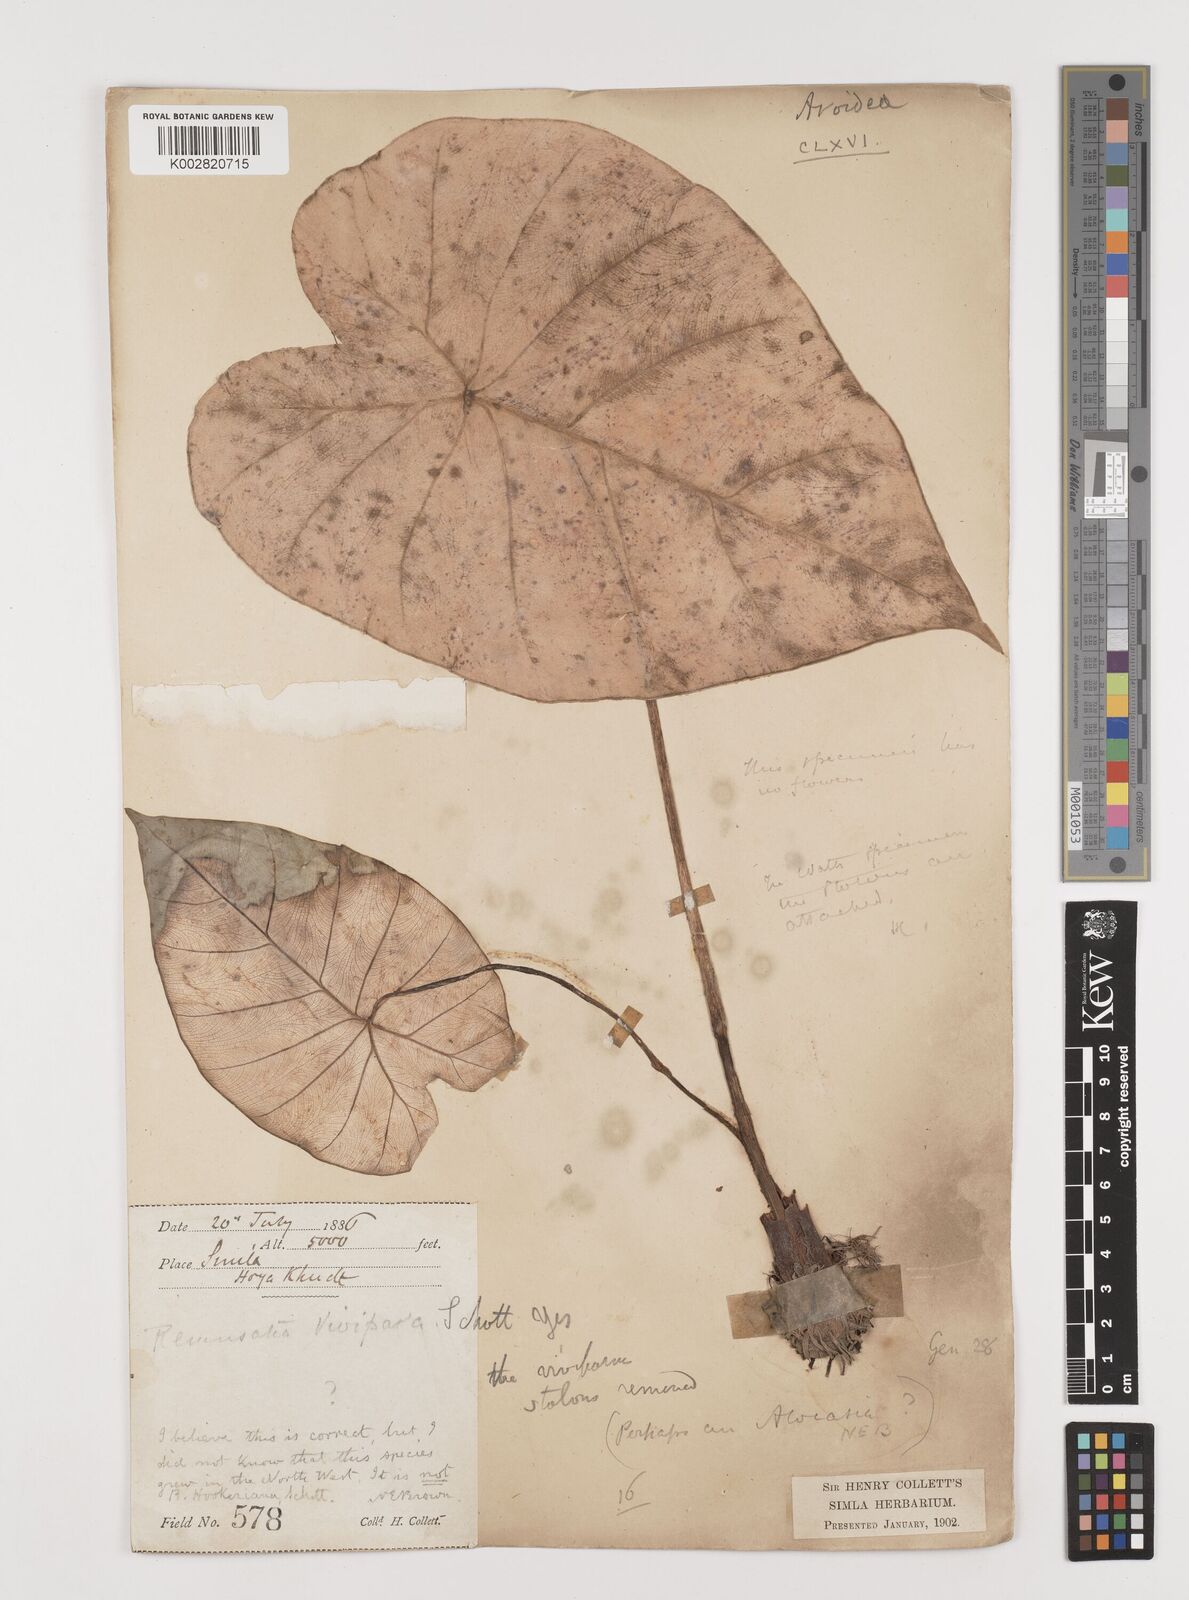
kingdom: Plantae
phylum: Tracheophyta
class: Liliopsida
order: Alismatales
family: Araceae
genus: Remusatia
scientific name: Remusatia vivipara
